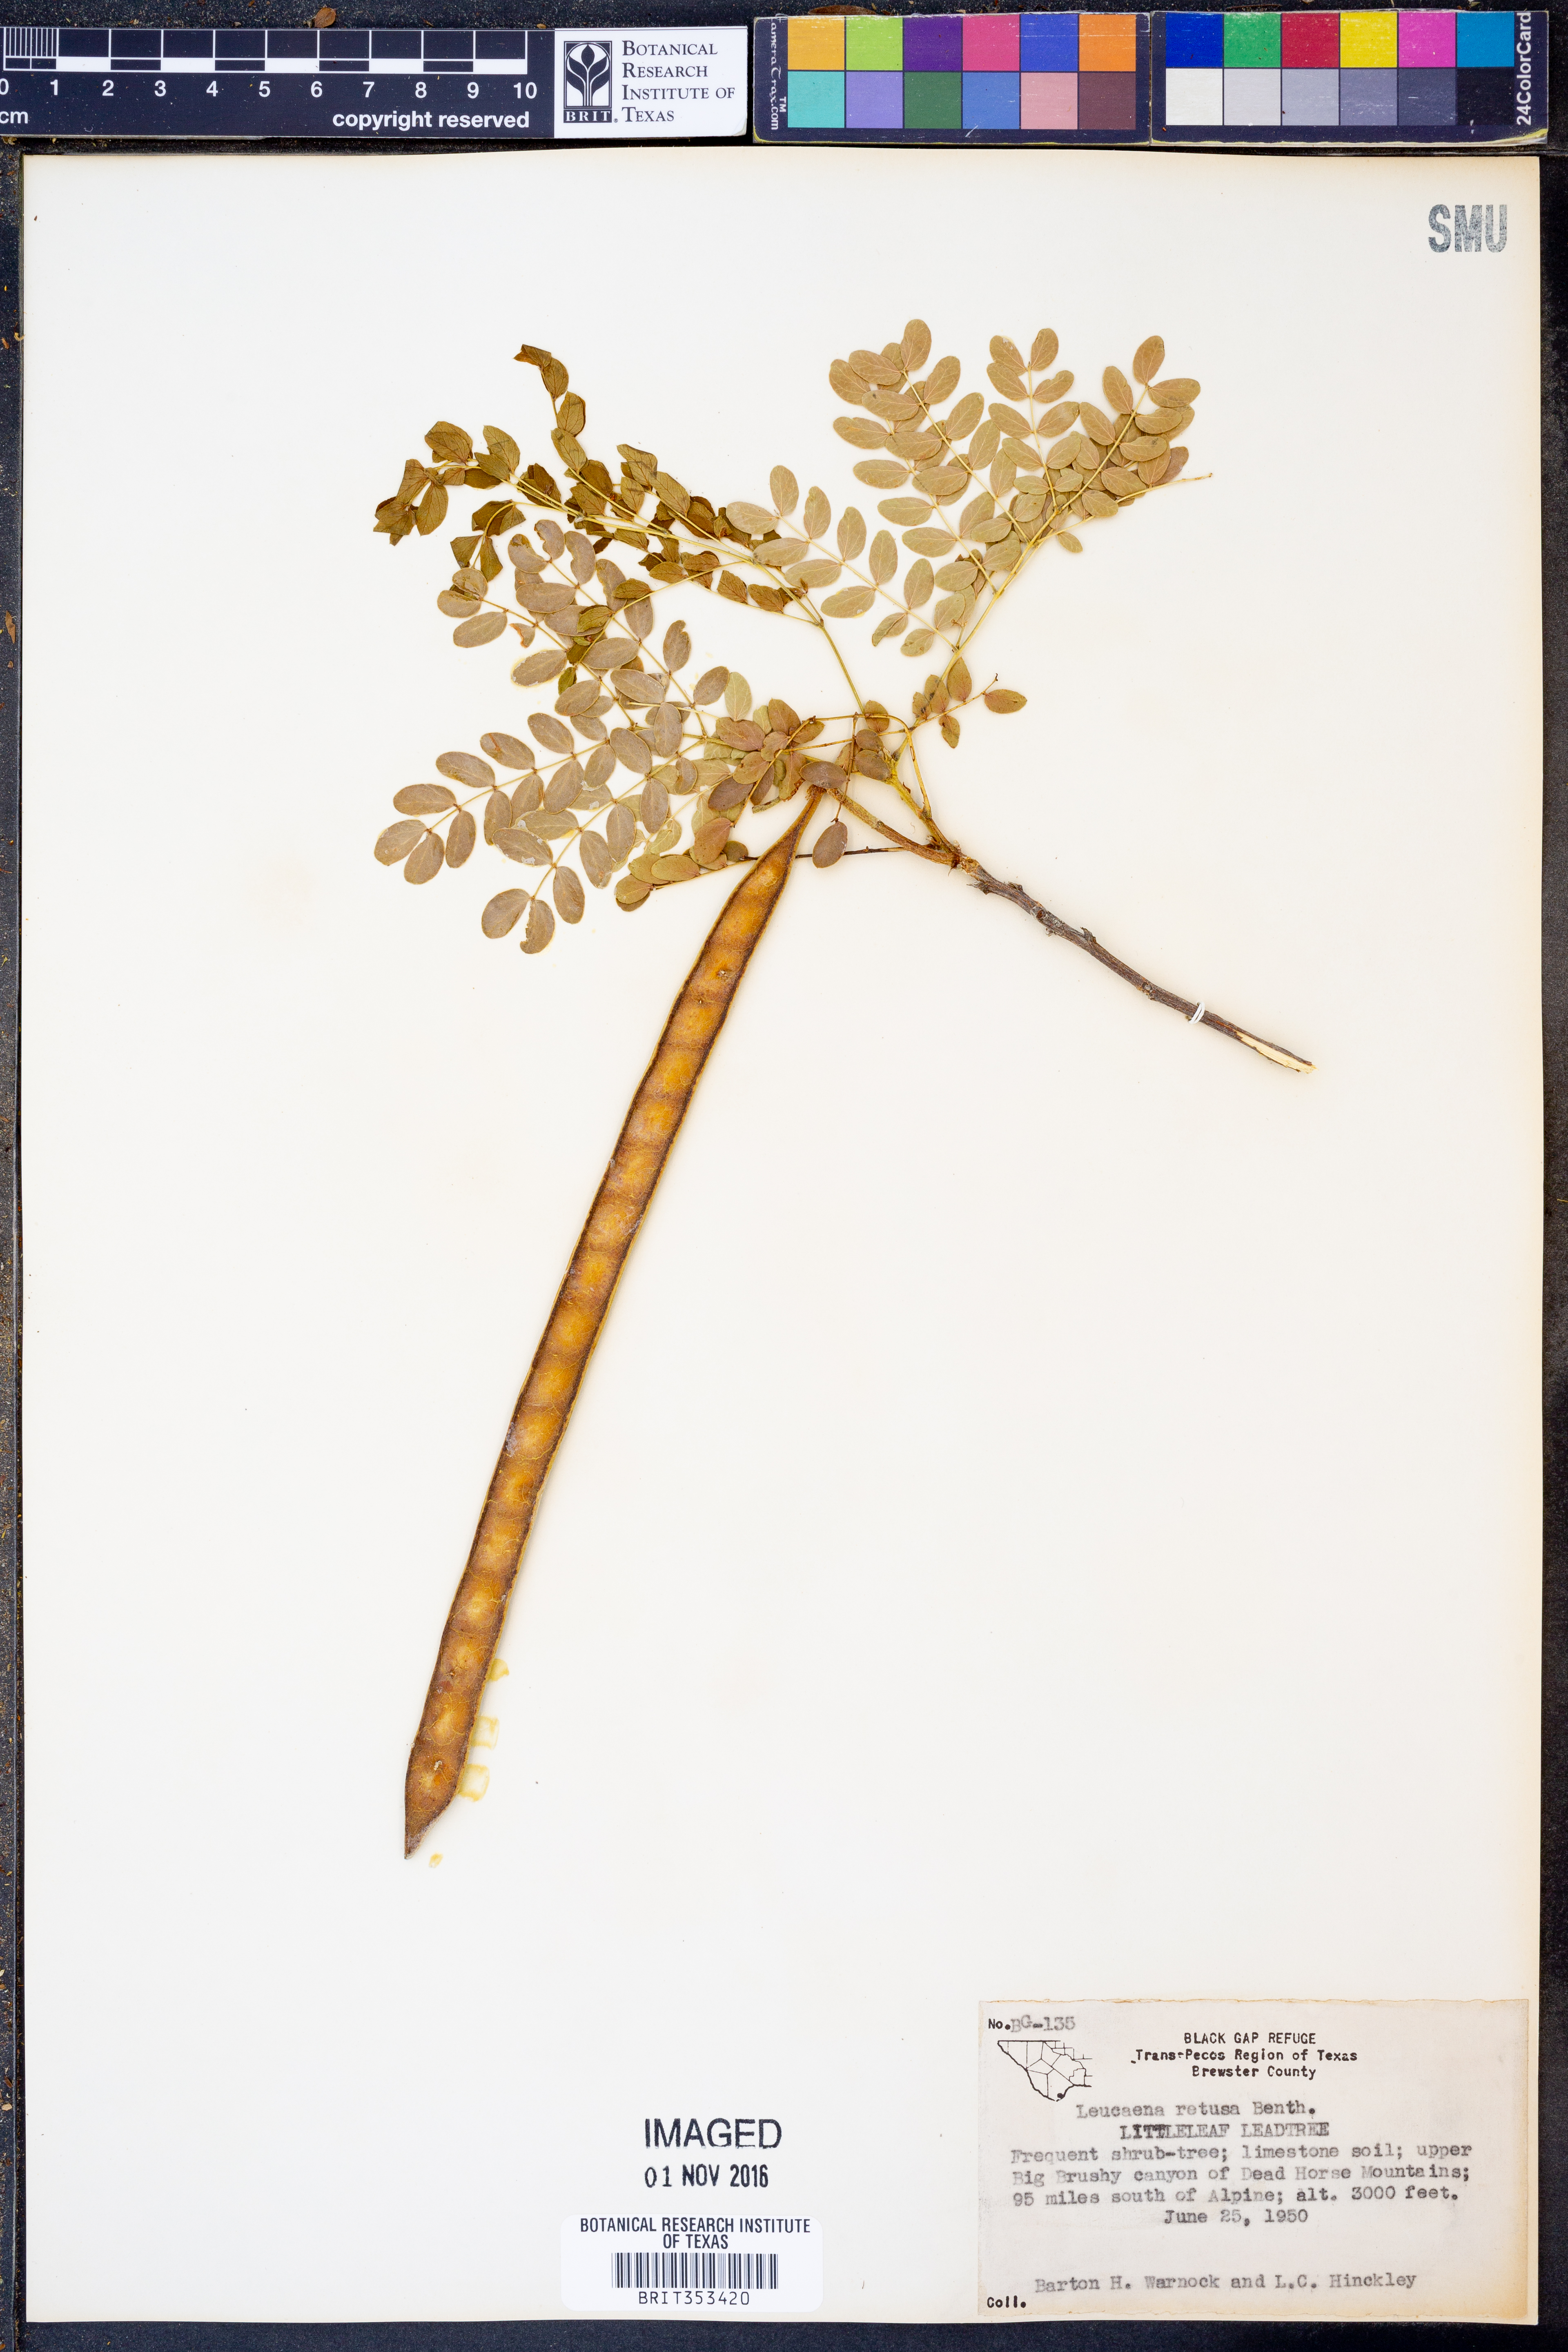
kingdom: Plantae
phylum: Tracheophyta
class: Magnoliopsida
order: Fabales
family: Fabaceae
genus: Leucaena
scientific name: Leucaena retusa
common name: Littleleaf leadtree
